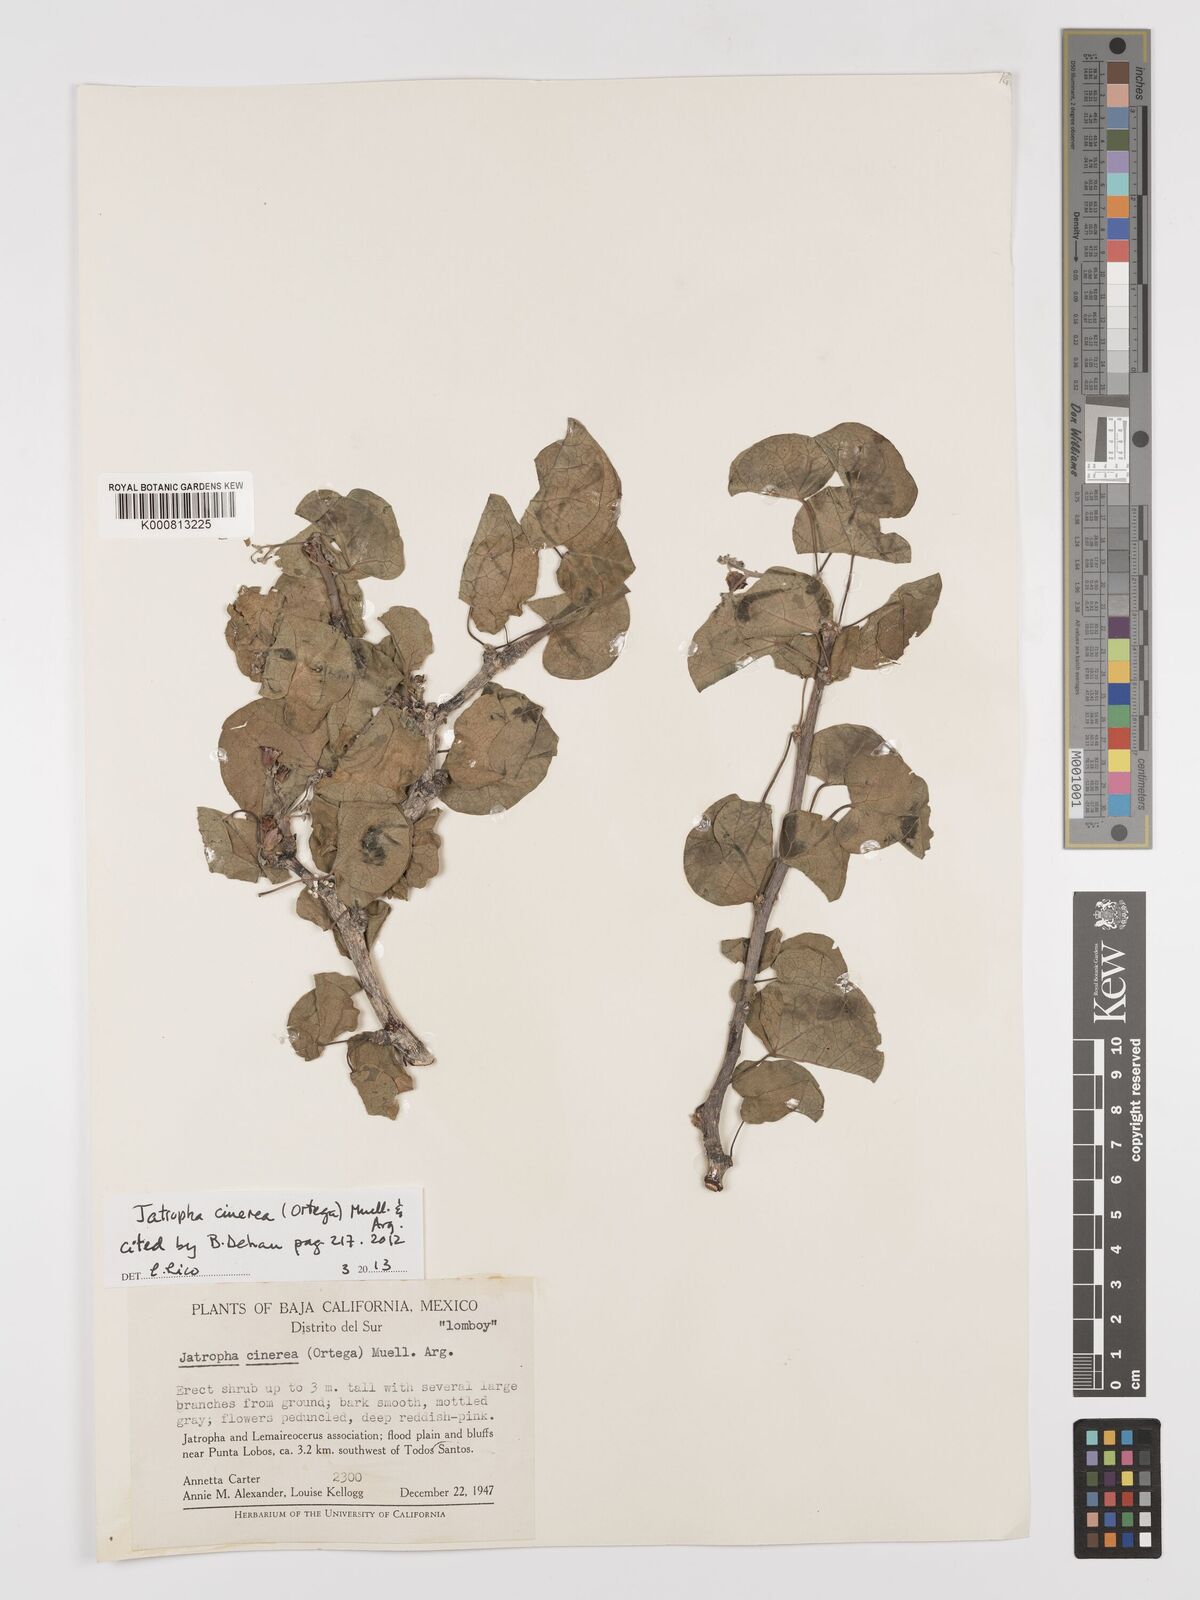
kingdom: Plantae
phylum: Tracheophyta
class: Magnoliopsida
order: Malpighiales
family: Euphorbiaceae
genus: Jatropha
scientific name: Jatropha
